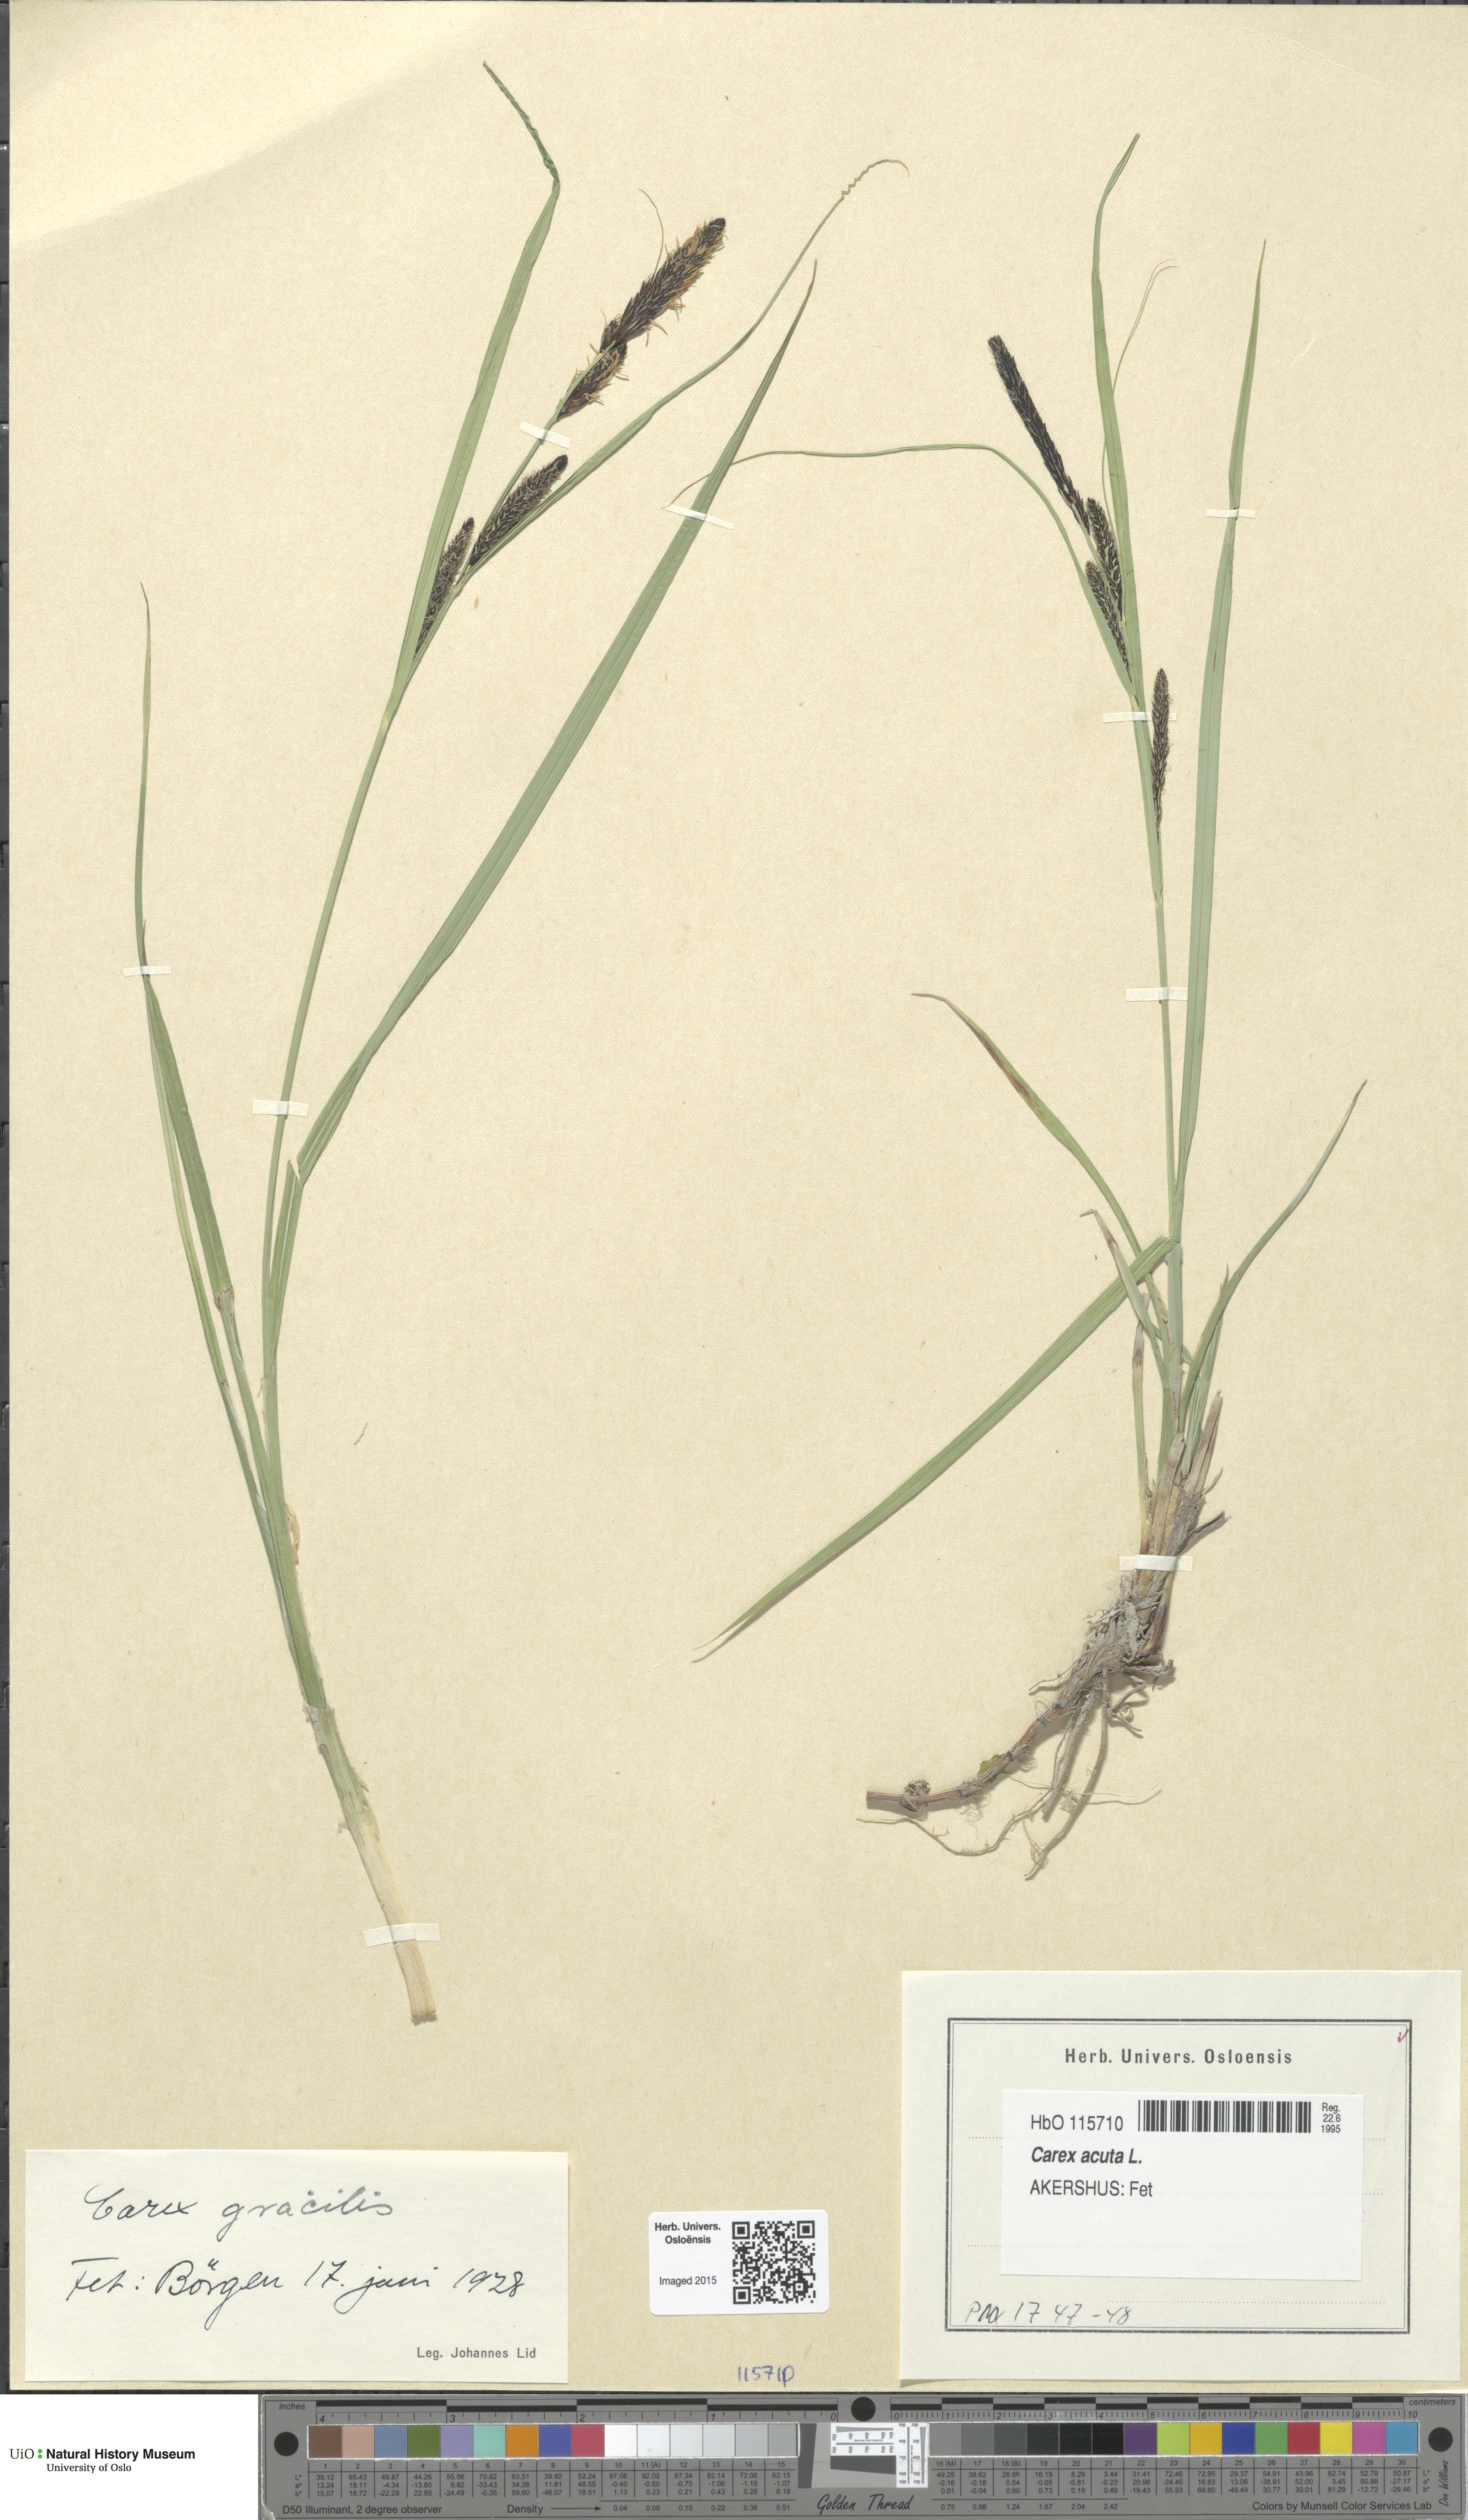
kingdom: Plantae
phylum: Tracheophyta
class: Liliopsida
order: Poales
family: Cyperaceae
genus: Carex
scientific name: Carex acuta
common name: Slender tufted-sedge
